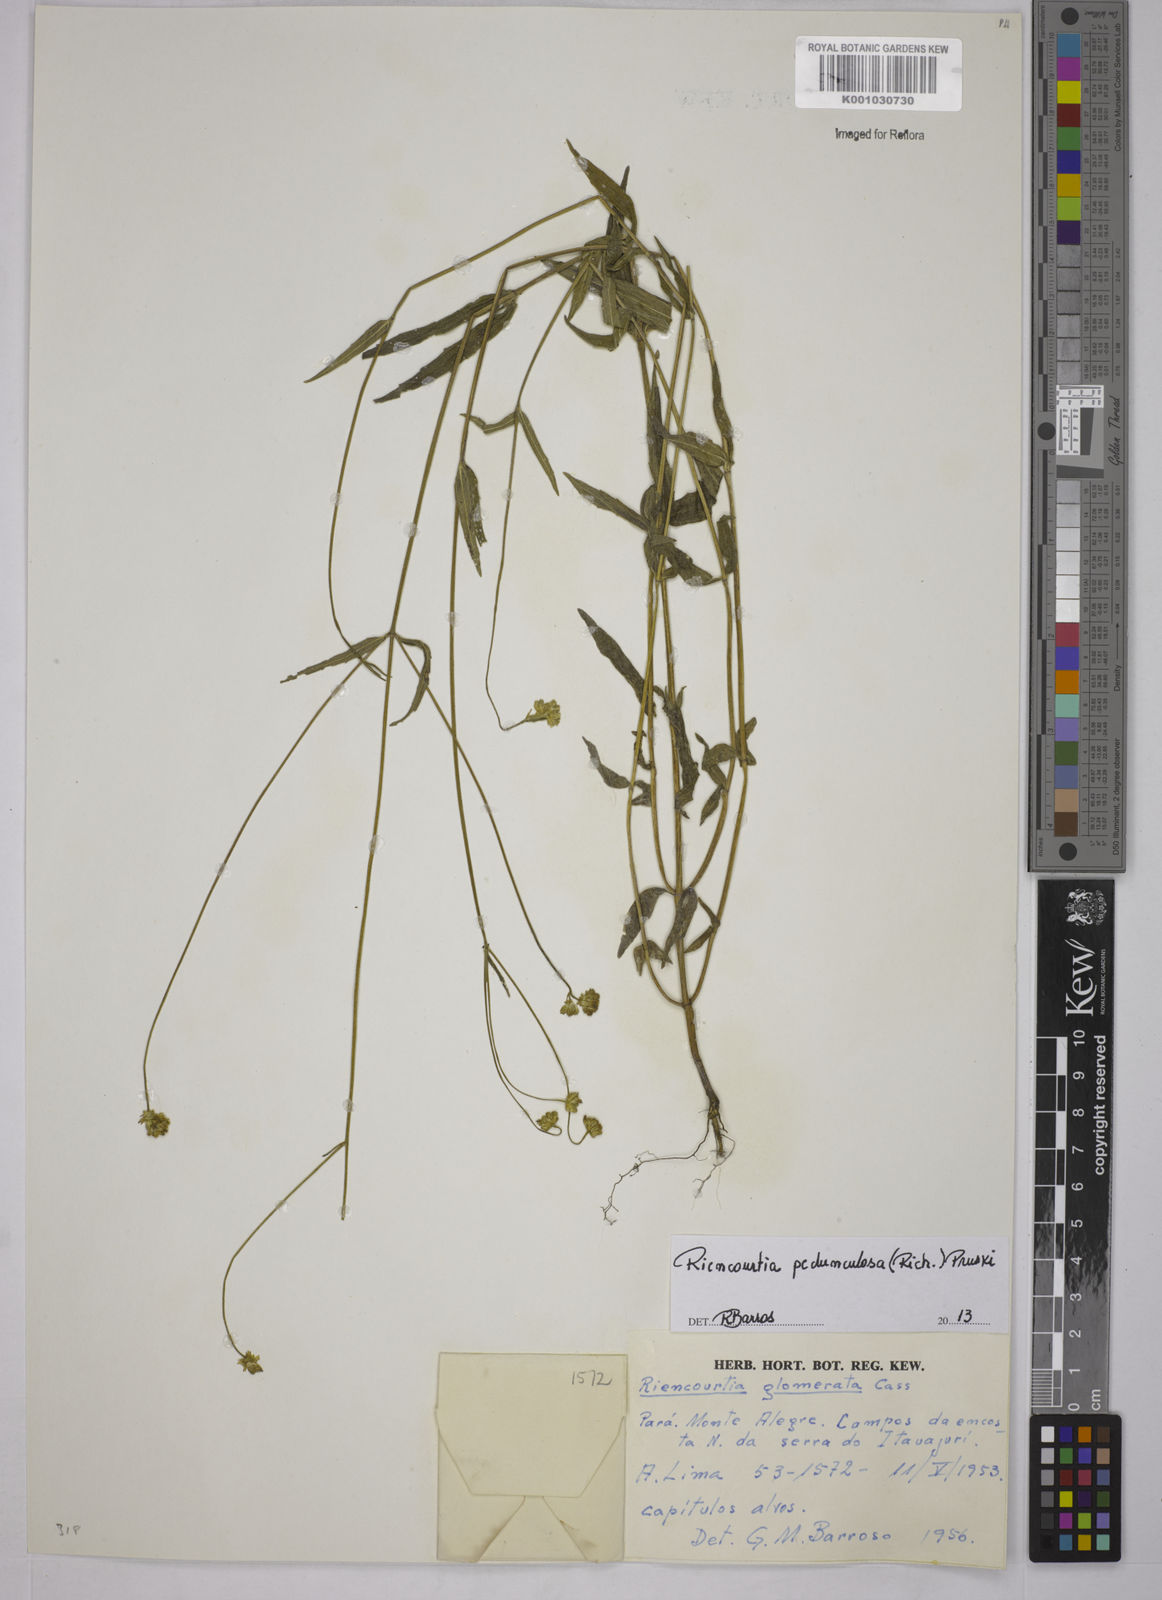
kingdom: Plantae
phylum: Tracheophyta
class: Magnoliopsida
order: Asterales
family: Asteraceae
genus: Riencourtia
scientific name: Riencourtia pedunculosa
